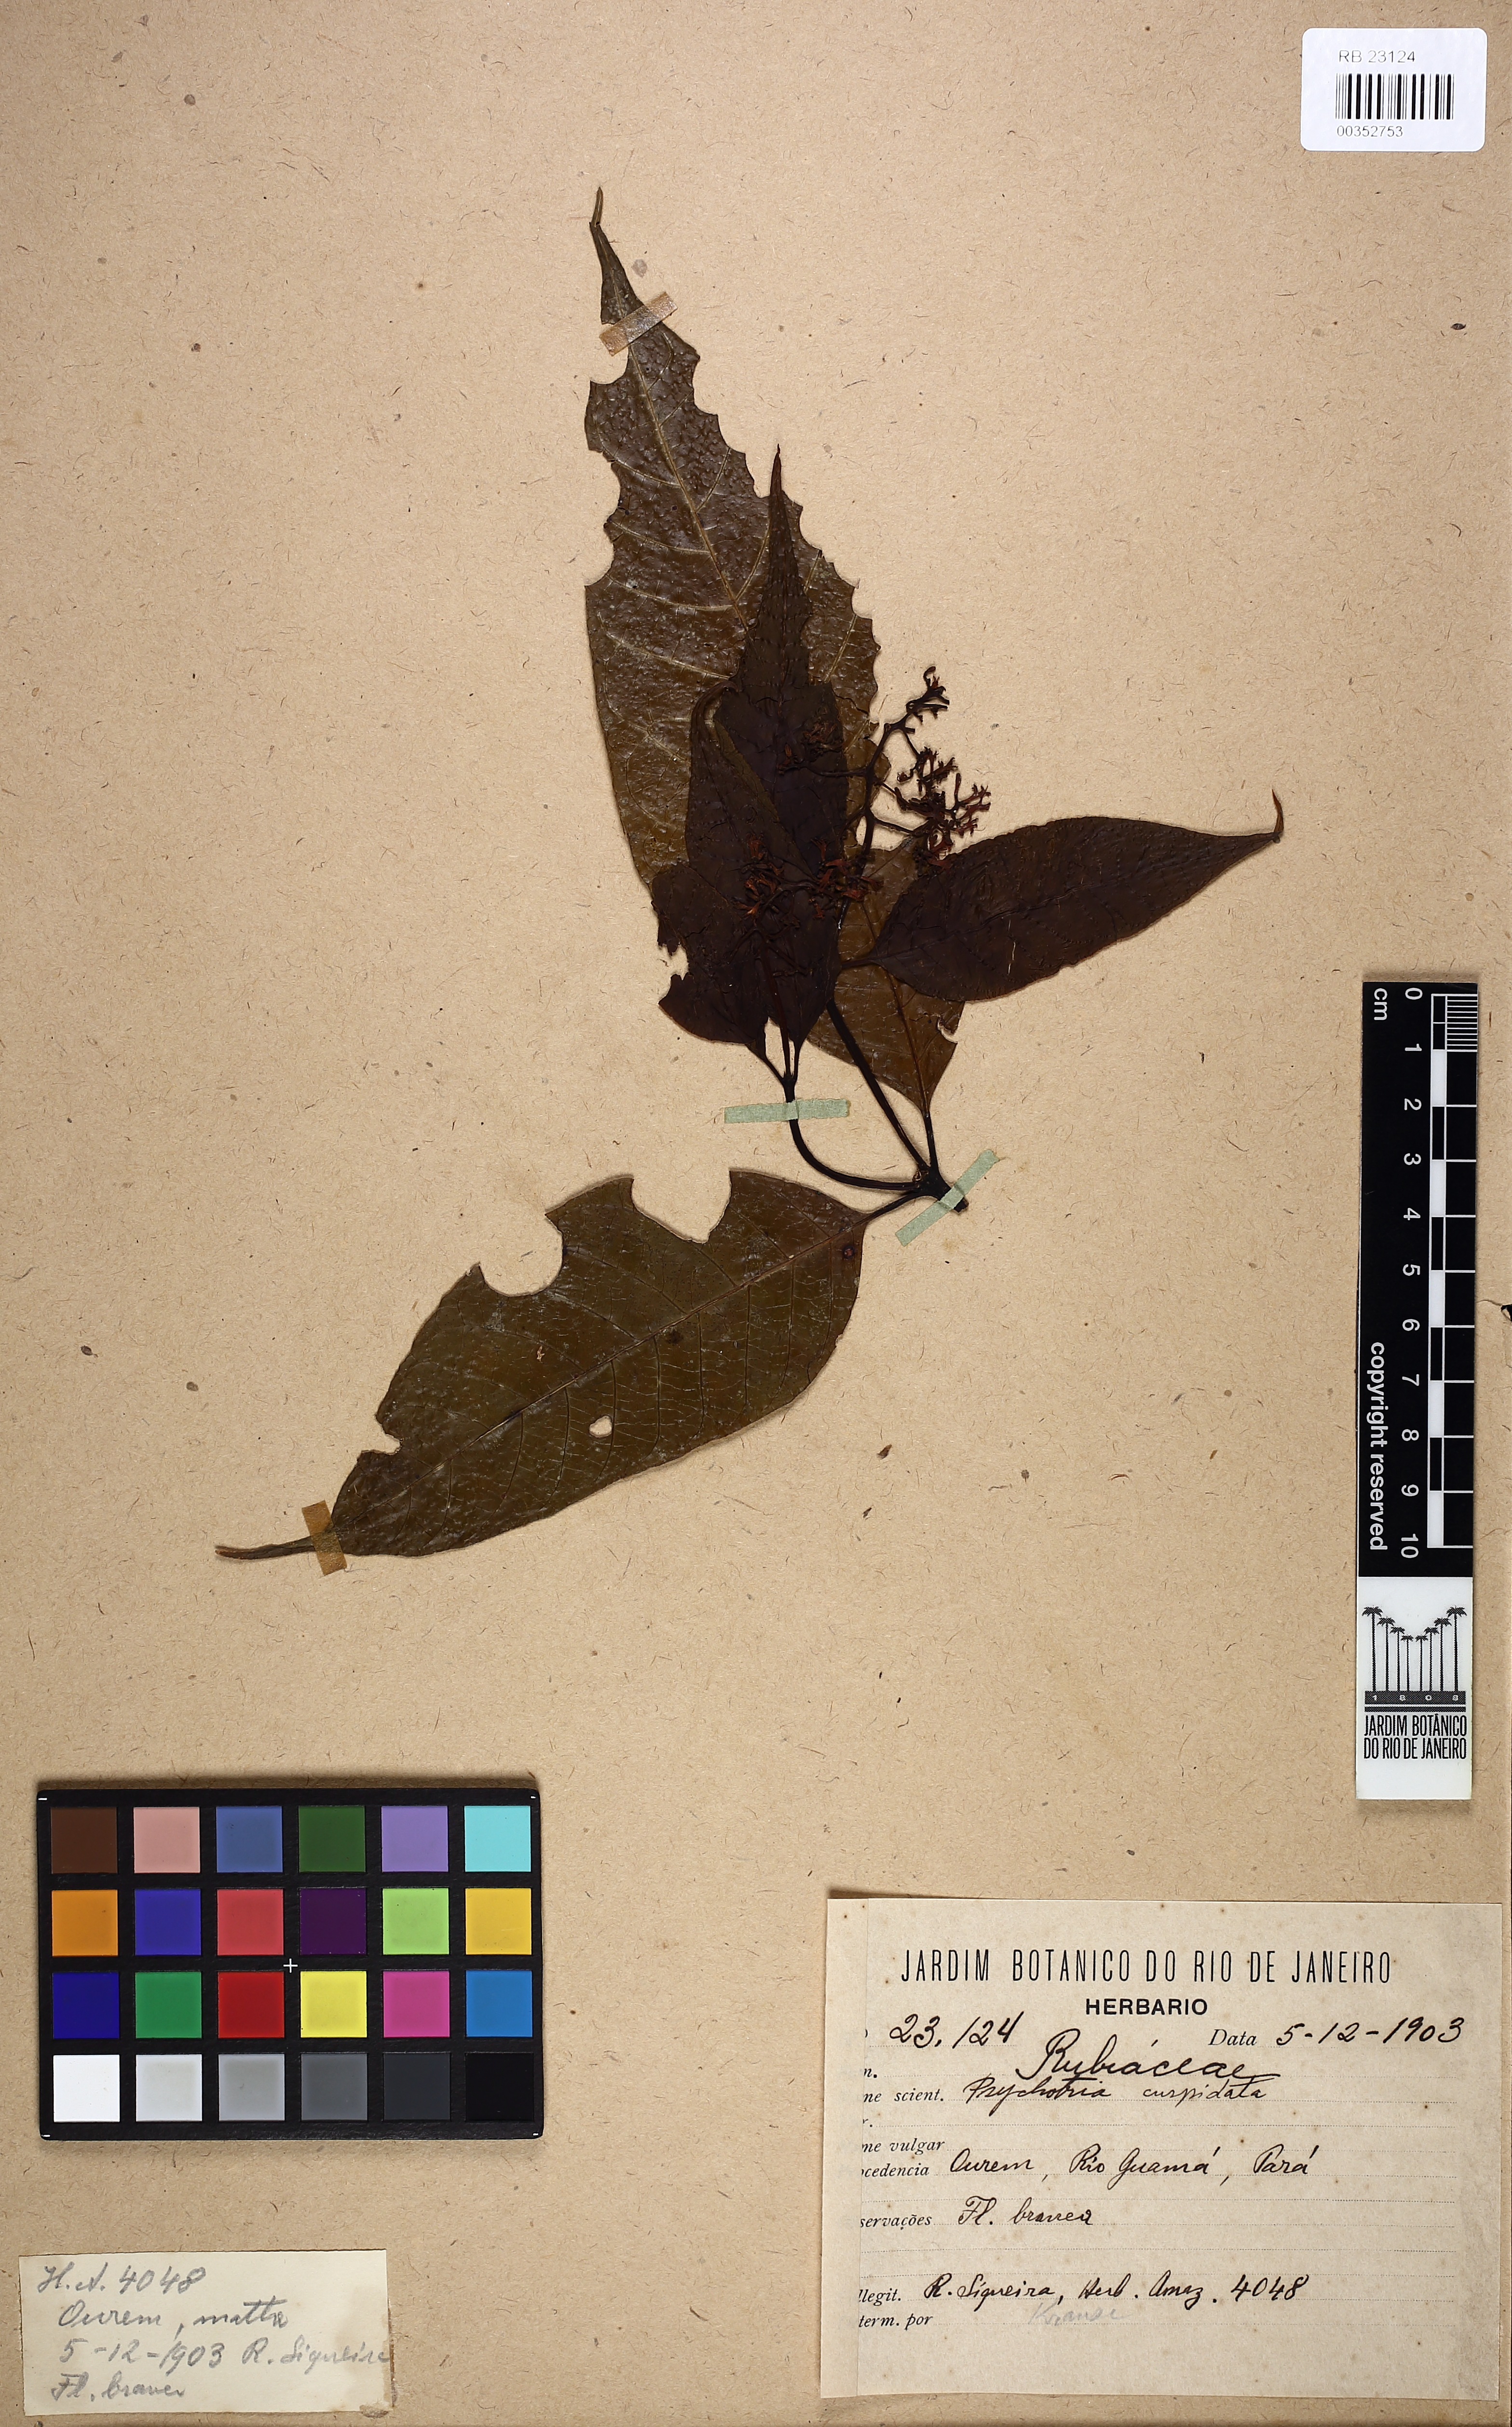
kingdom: Plantae
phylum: Tracheophyta
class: Magnoliopsida
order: Gentianales
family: Rubiaceae
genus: Palicourea
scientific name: Palicourea cuspidata
